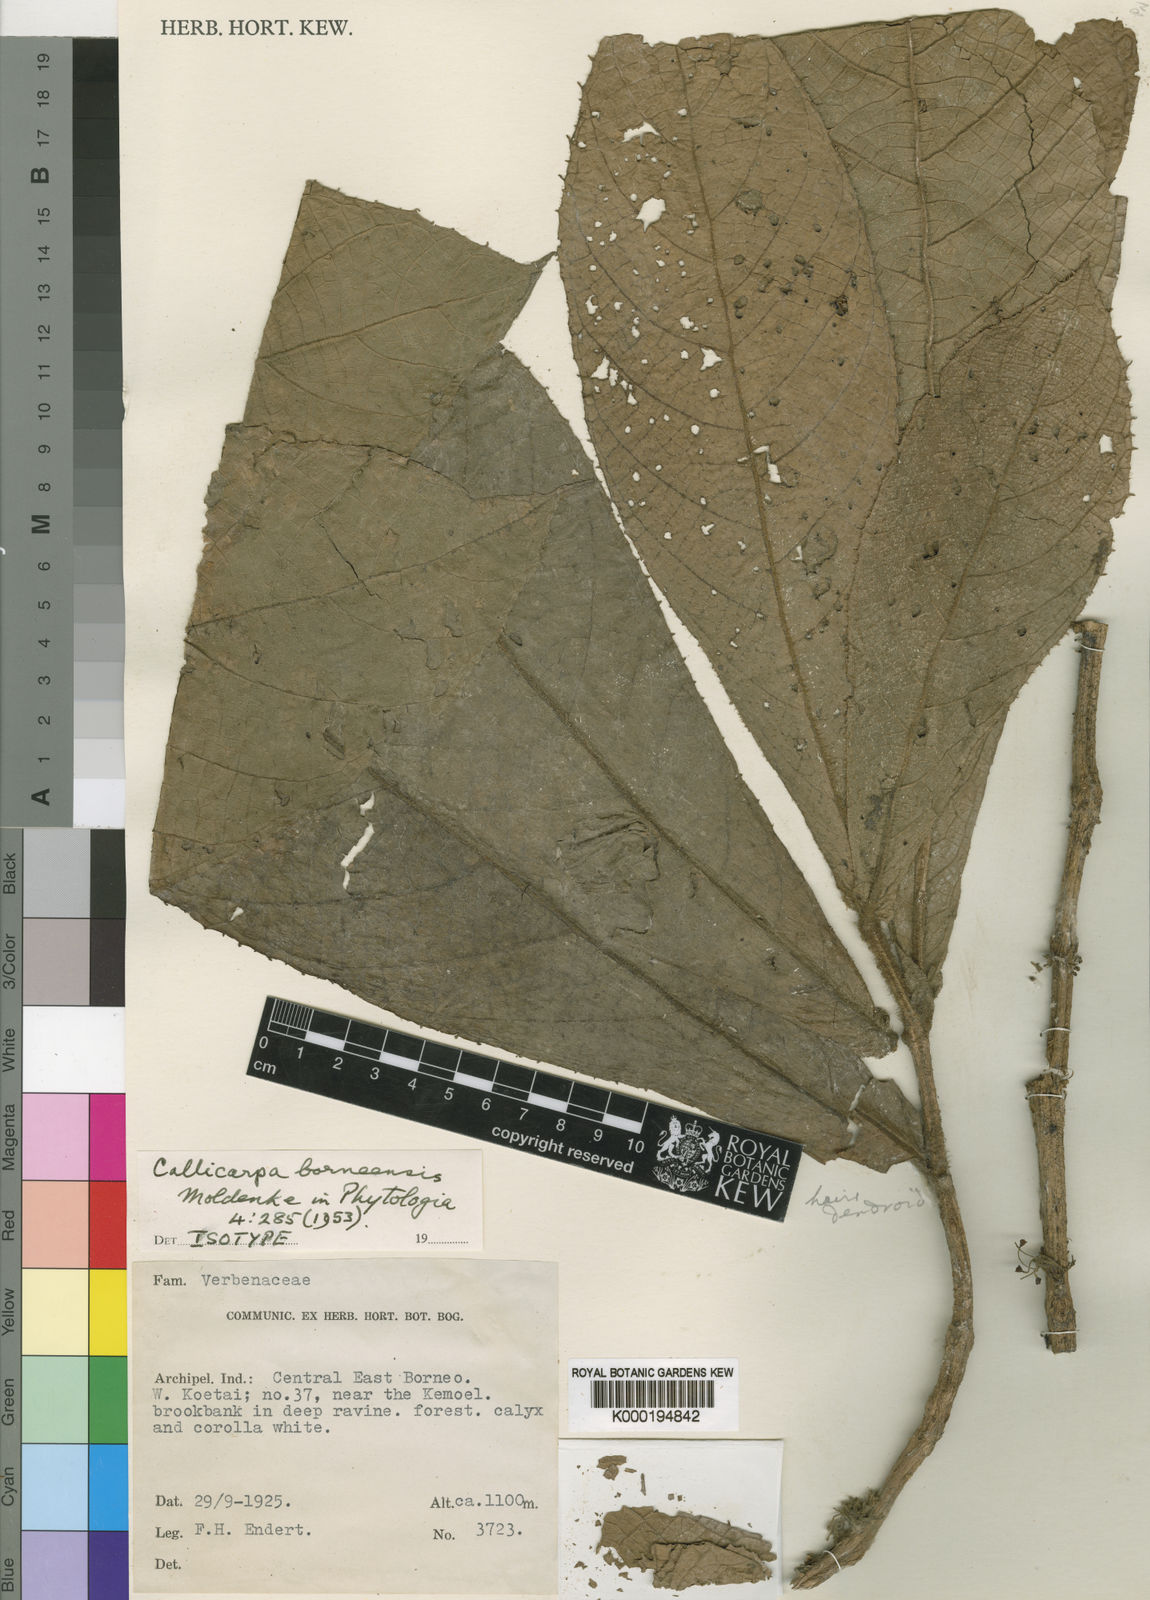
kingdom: Plantae
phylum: Tracheophyta
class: Magnoliopsida
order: Lamiales
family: Lamiaceae
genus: Callicarpa
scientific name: Callicarpa barbata
